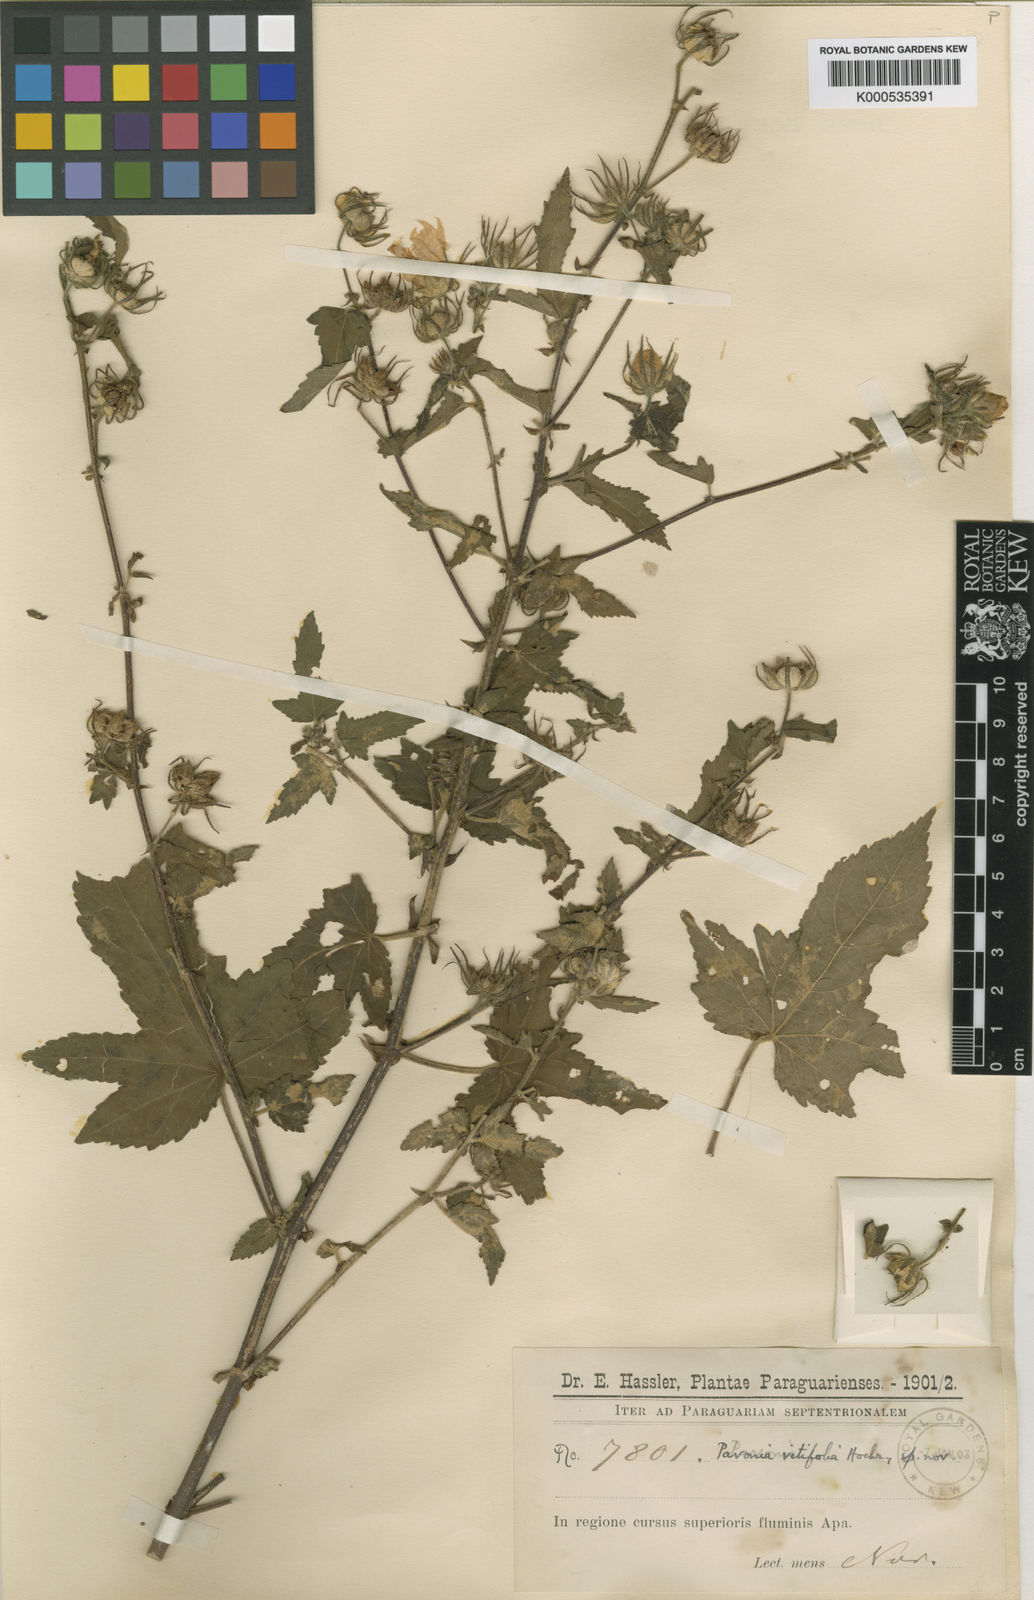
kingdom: Plantae
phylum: Tracheophyta
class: Magnoliopsida
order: Malvales
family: Malvaceae
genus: Pavonia
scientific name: Pavonia
